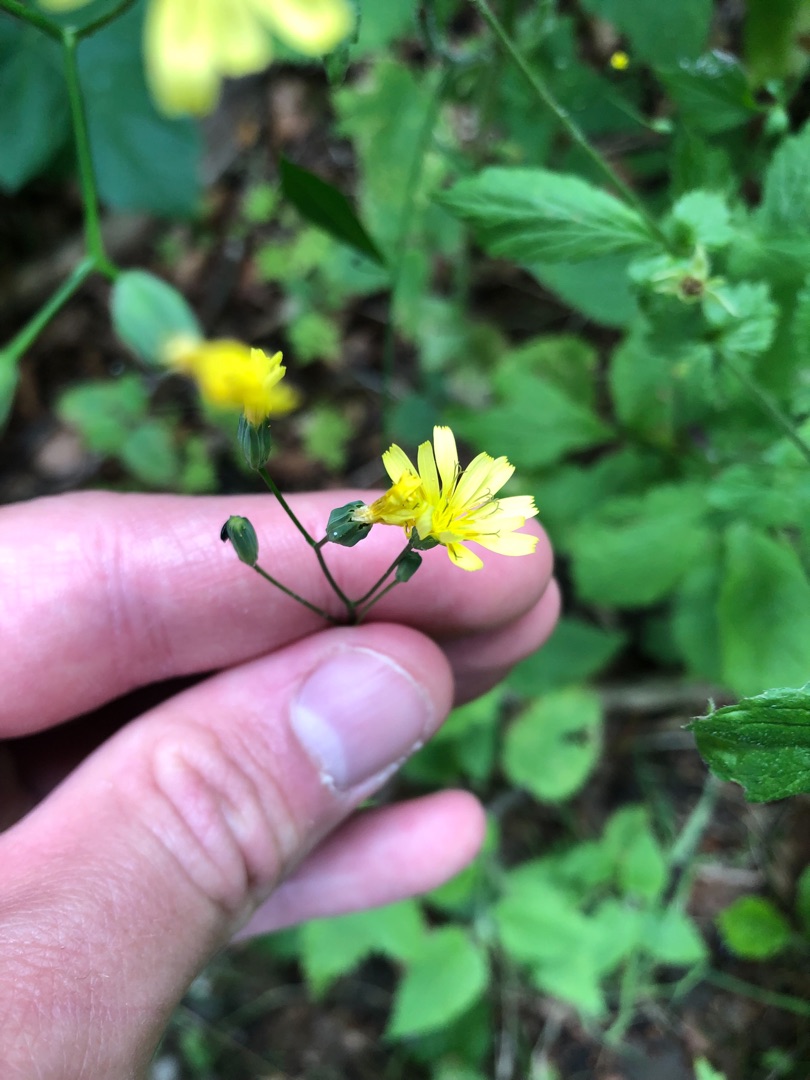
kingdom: Plantae
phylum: Tracheophyta
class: Magnoliopsida
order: Asterales
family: Asteraceae
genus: Lapsana
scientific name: Lapsana communis
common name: Haremad
